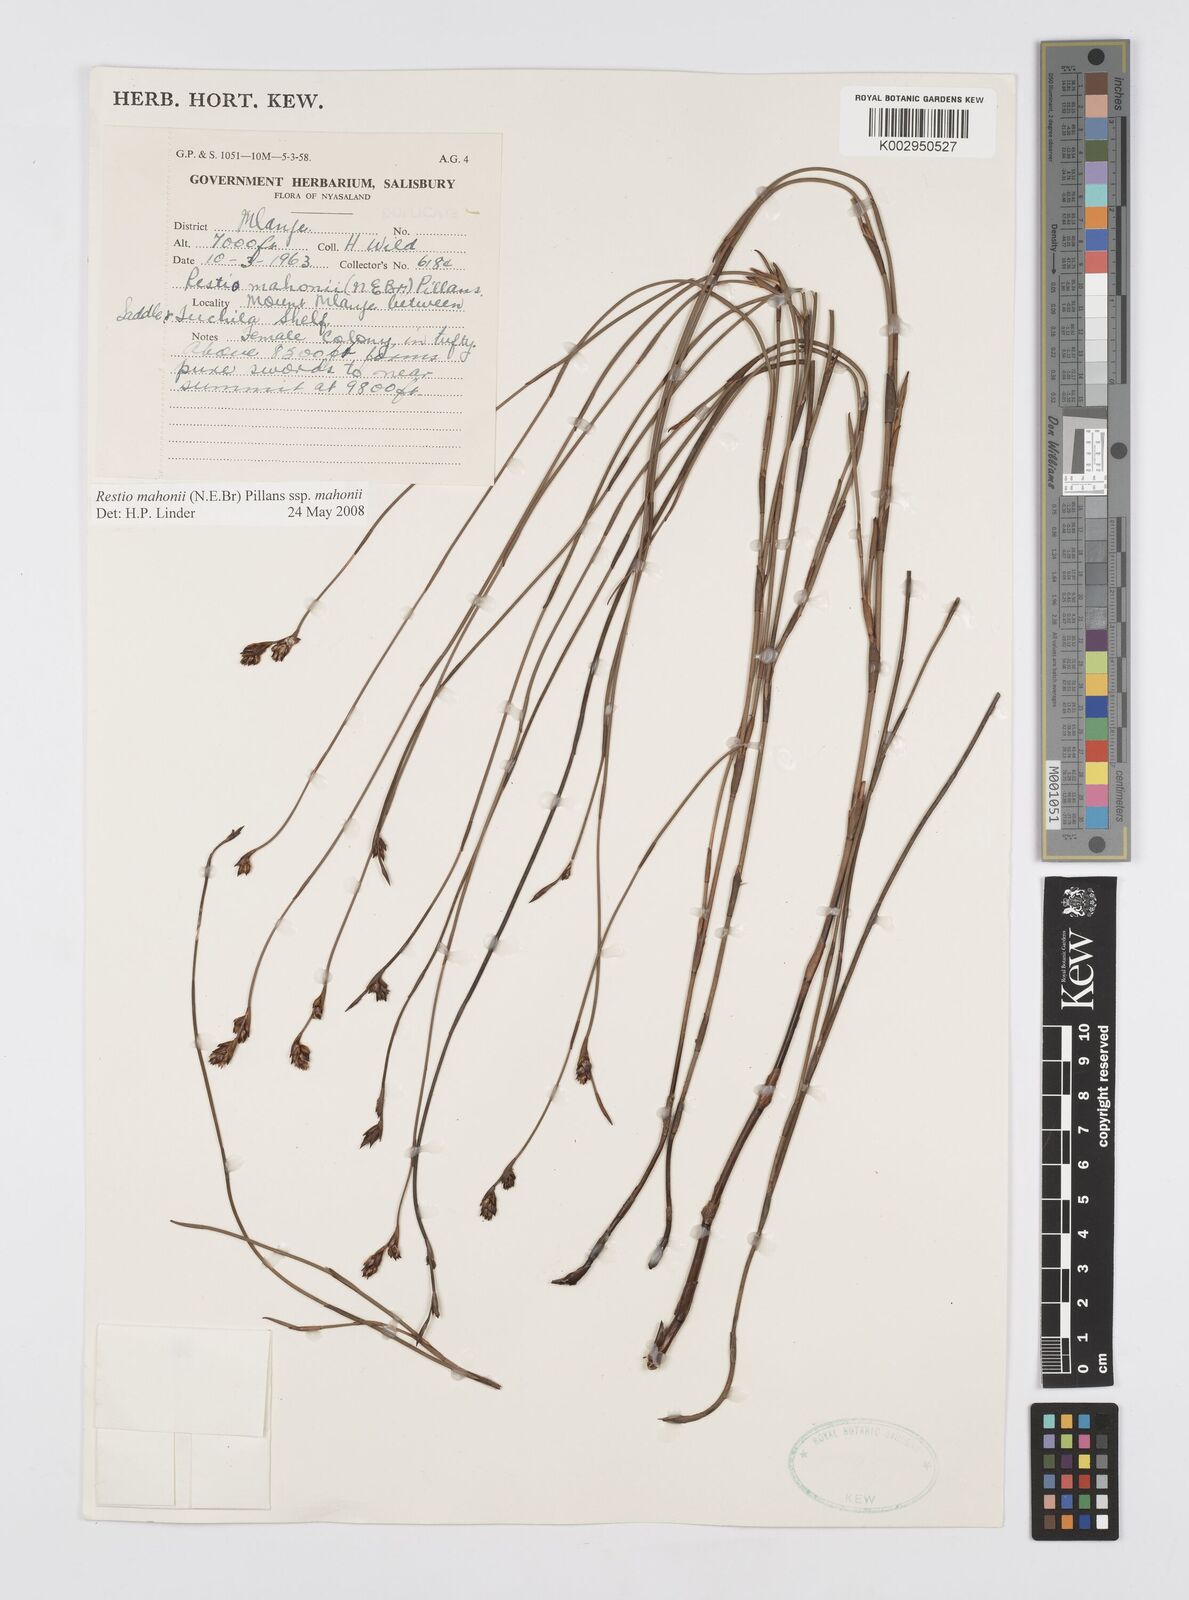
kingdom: Plantae
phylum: Tracheophyta
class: Liliopsida
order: Poales
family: Restionaceae
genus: Platycaulos
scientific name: Platycaulos mahonii
